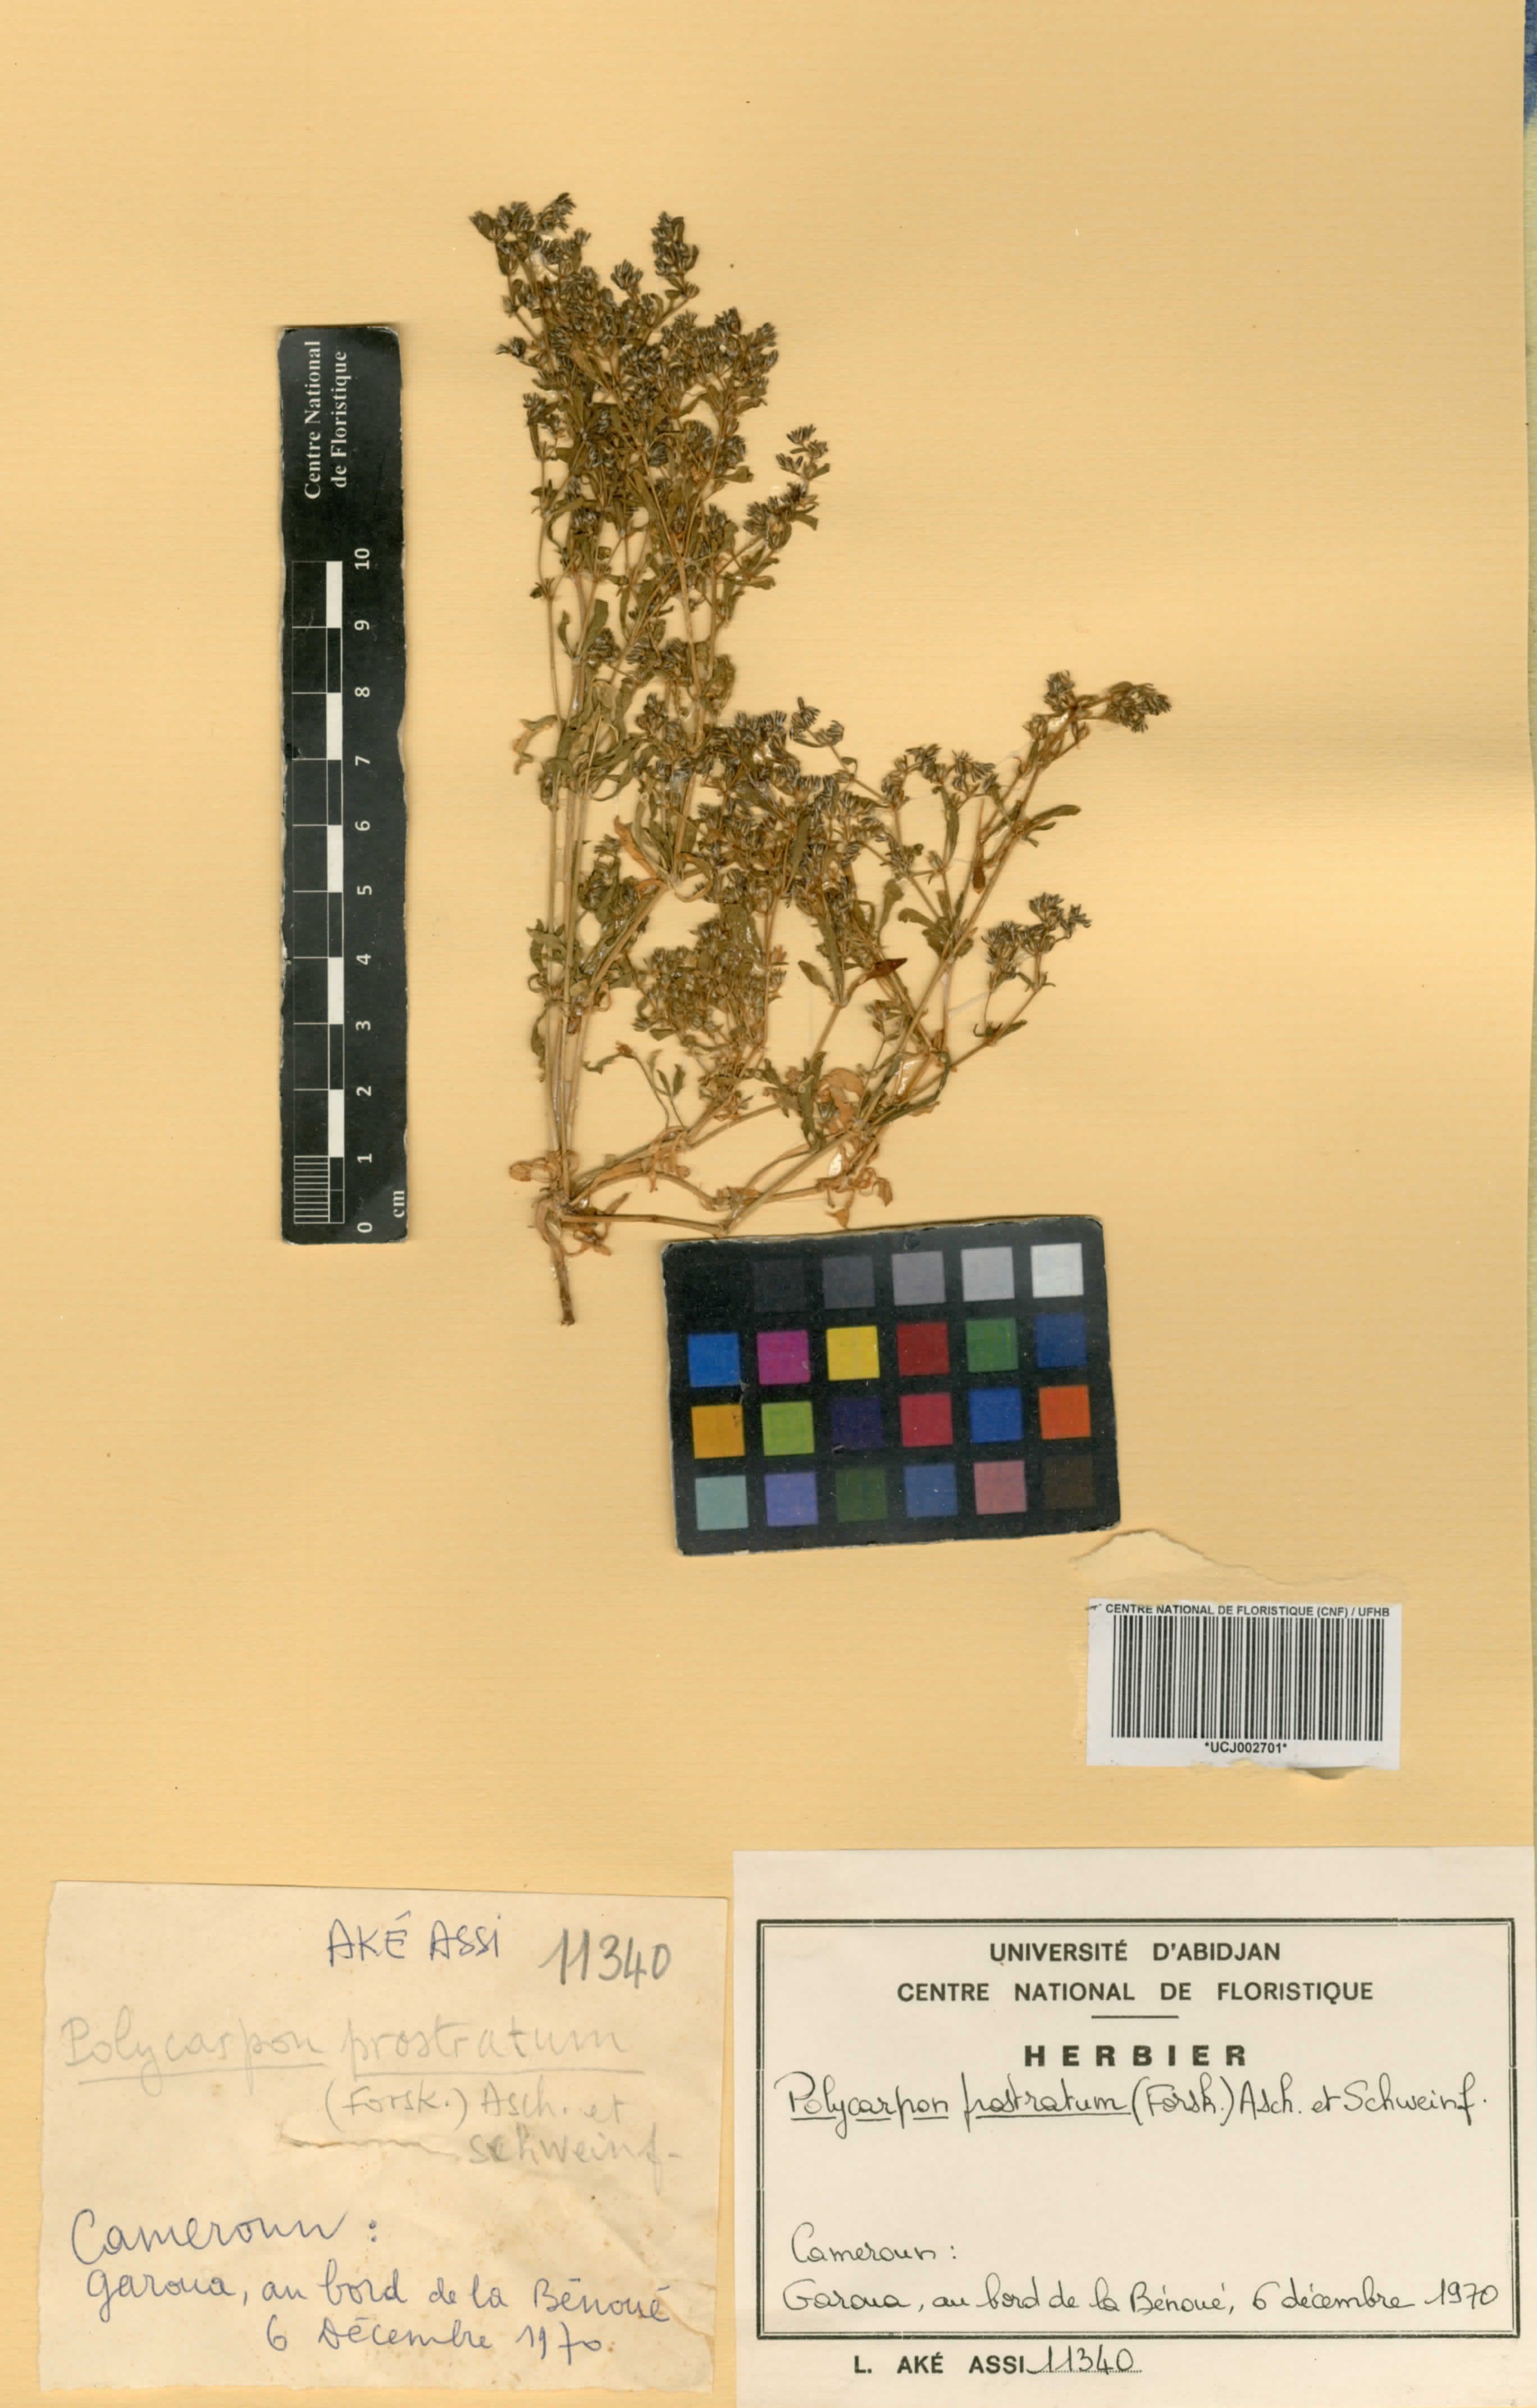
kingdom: Plantae
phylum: Tracheophyta
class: Magnoliopsida
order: Caryophyllales
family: Caryophyllaceae
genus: Polycarpon
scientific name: Polycarpon prostratum
